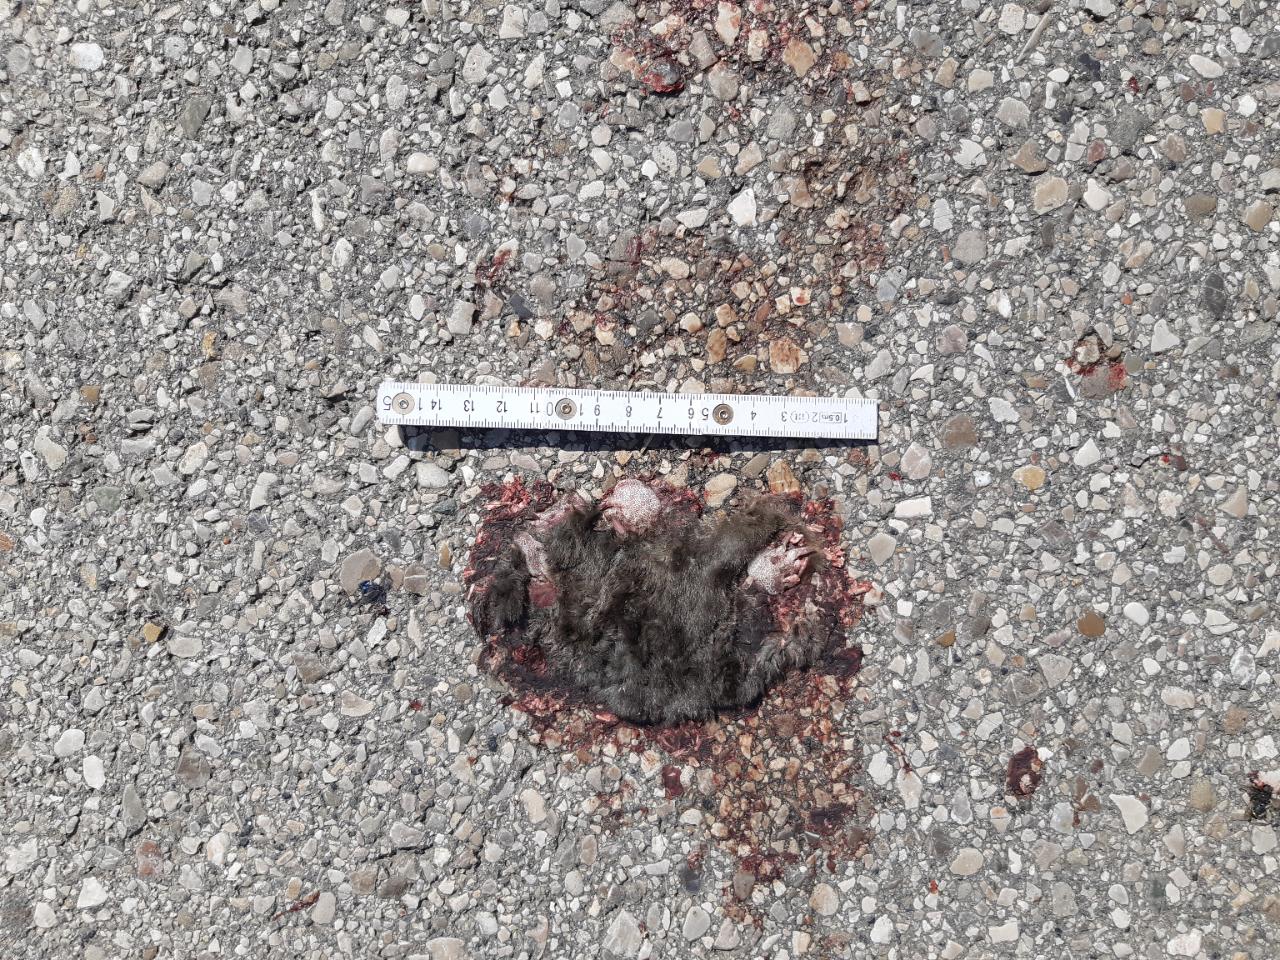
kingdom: Animalia
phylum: Chordata
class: Mammalia
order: Soricomorpha
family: Talpidae
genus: Talpa
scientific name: Talpa europaea
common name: European mole
